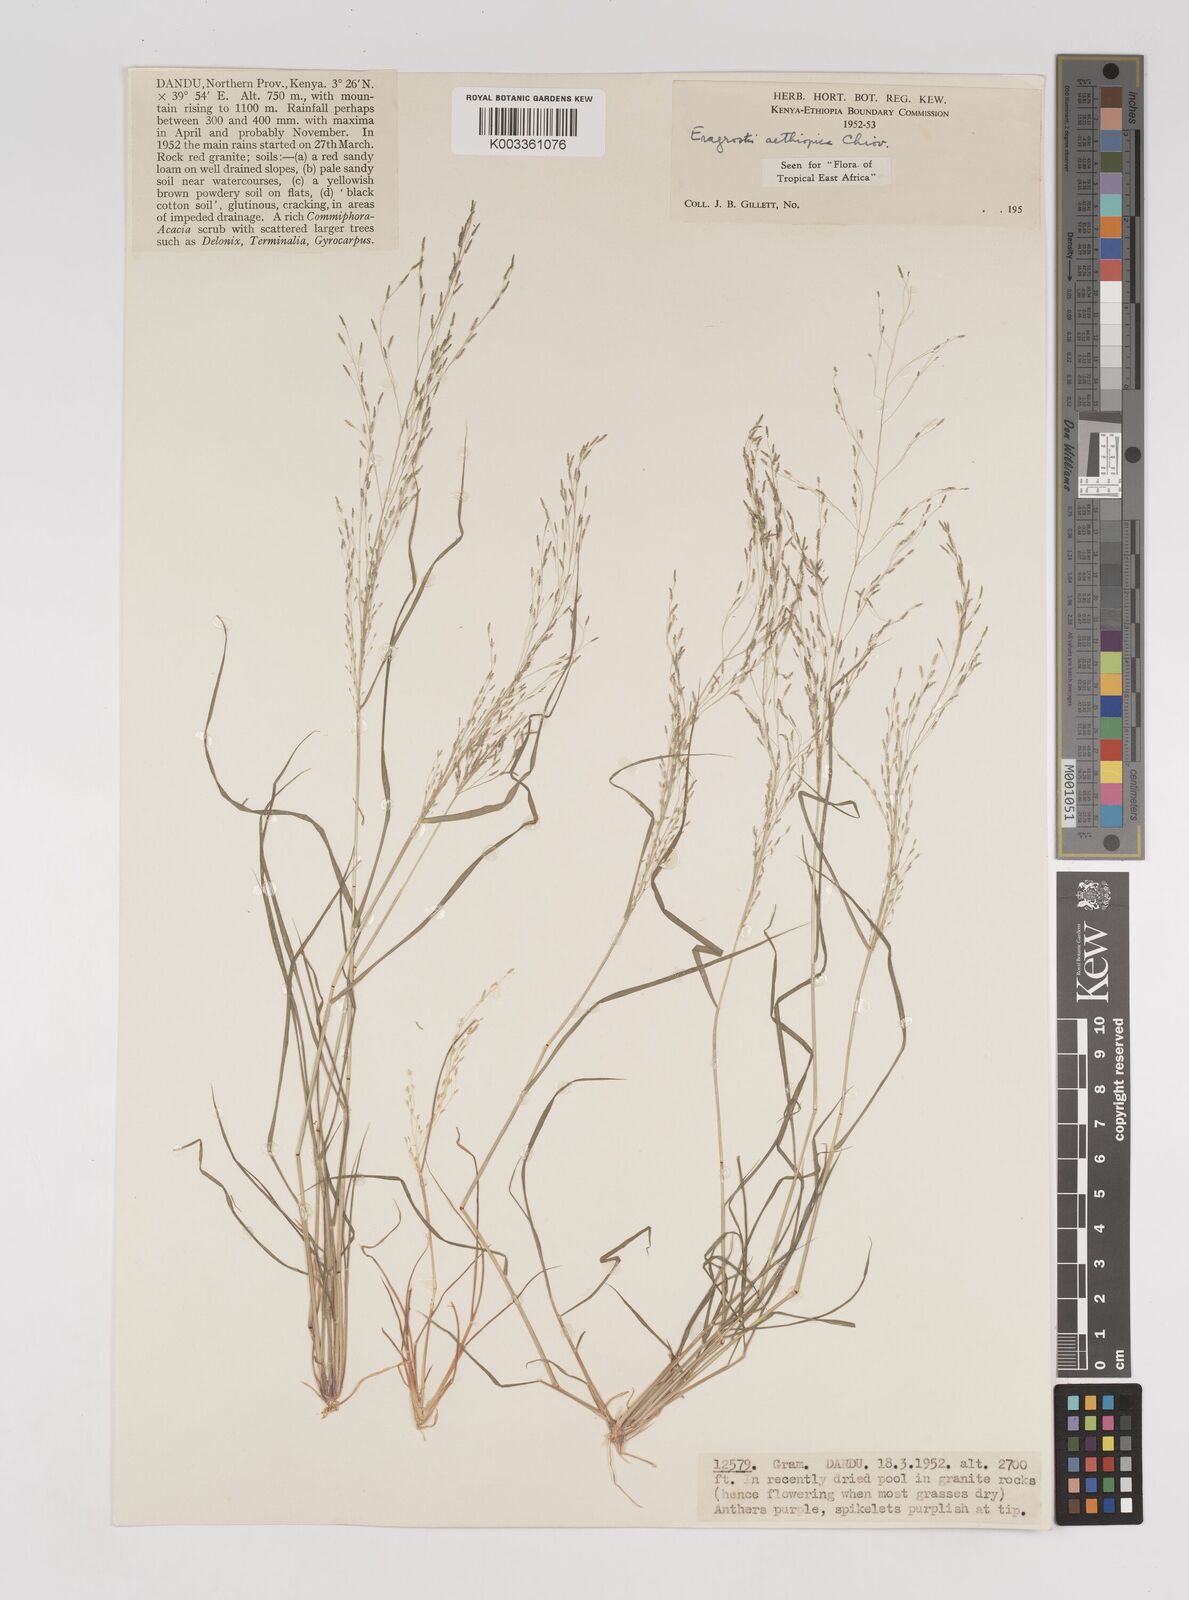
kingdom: Plantae
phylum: Tracheophyta
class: Liliopsida
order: Poales
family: Poaceae
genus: Eragrostis
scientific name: Eragrostis aethiopica
